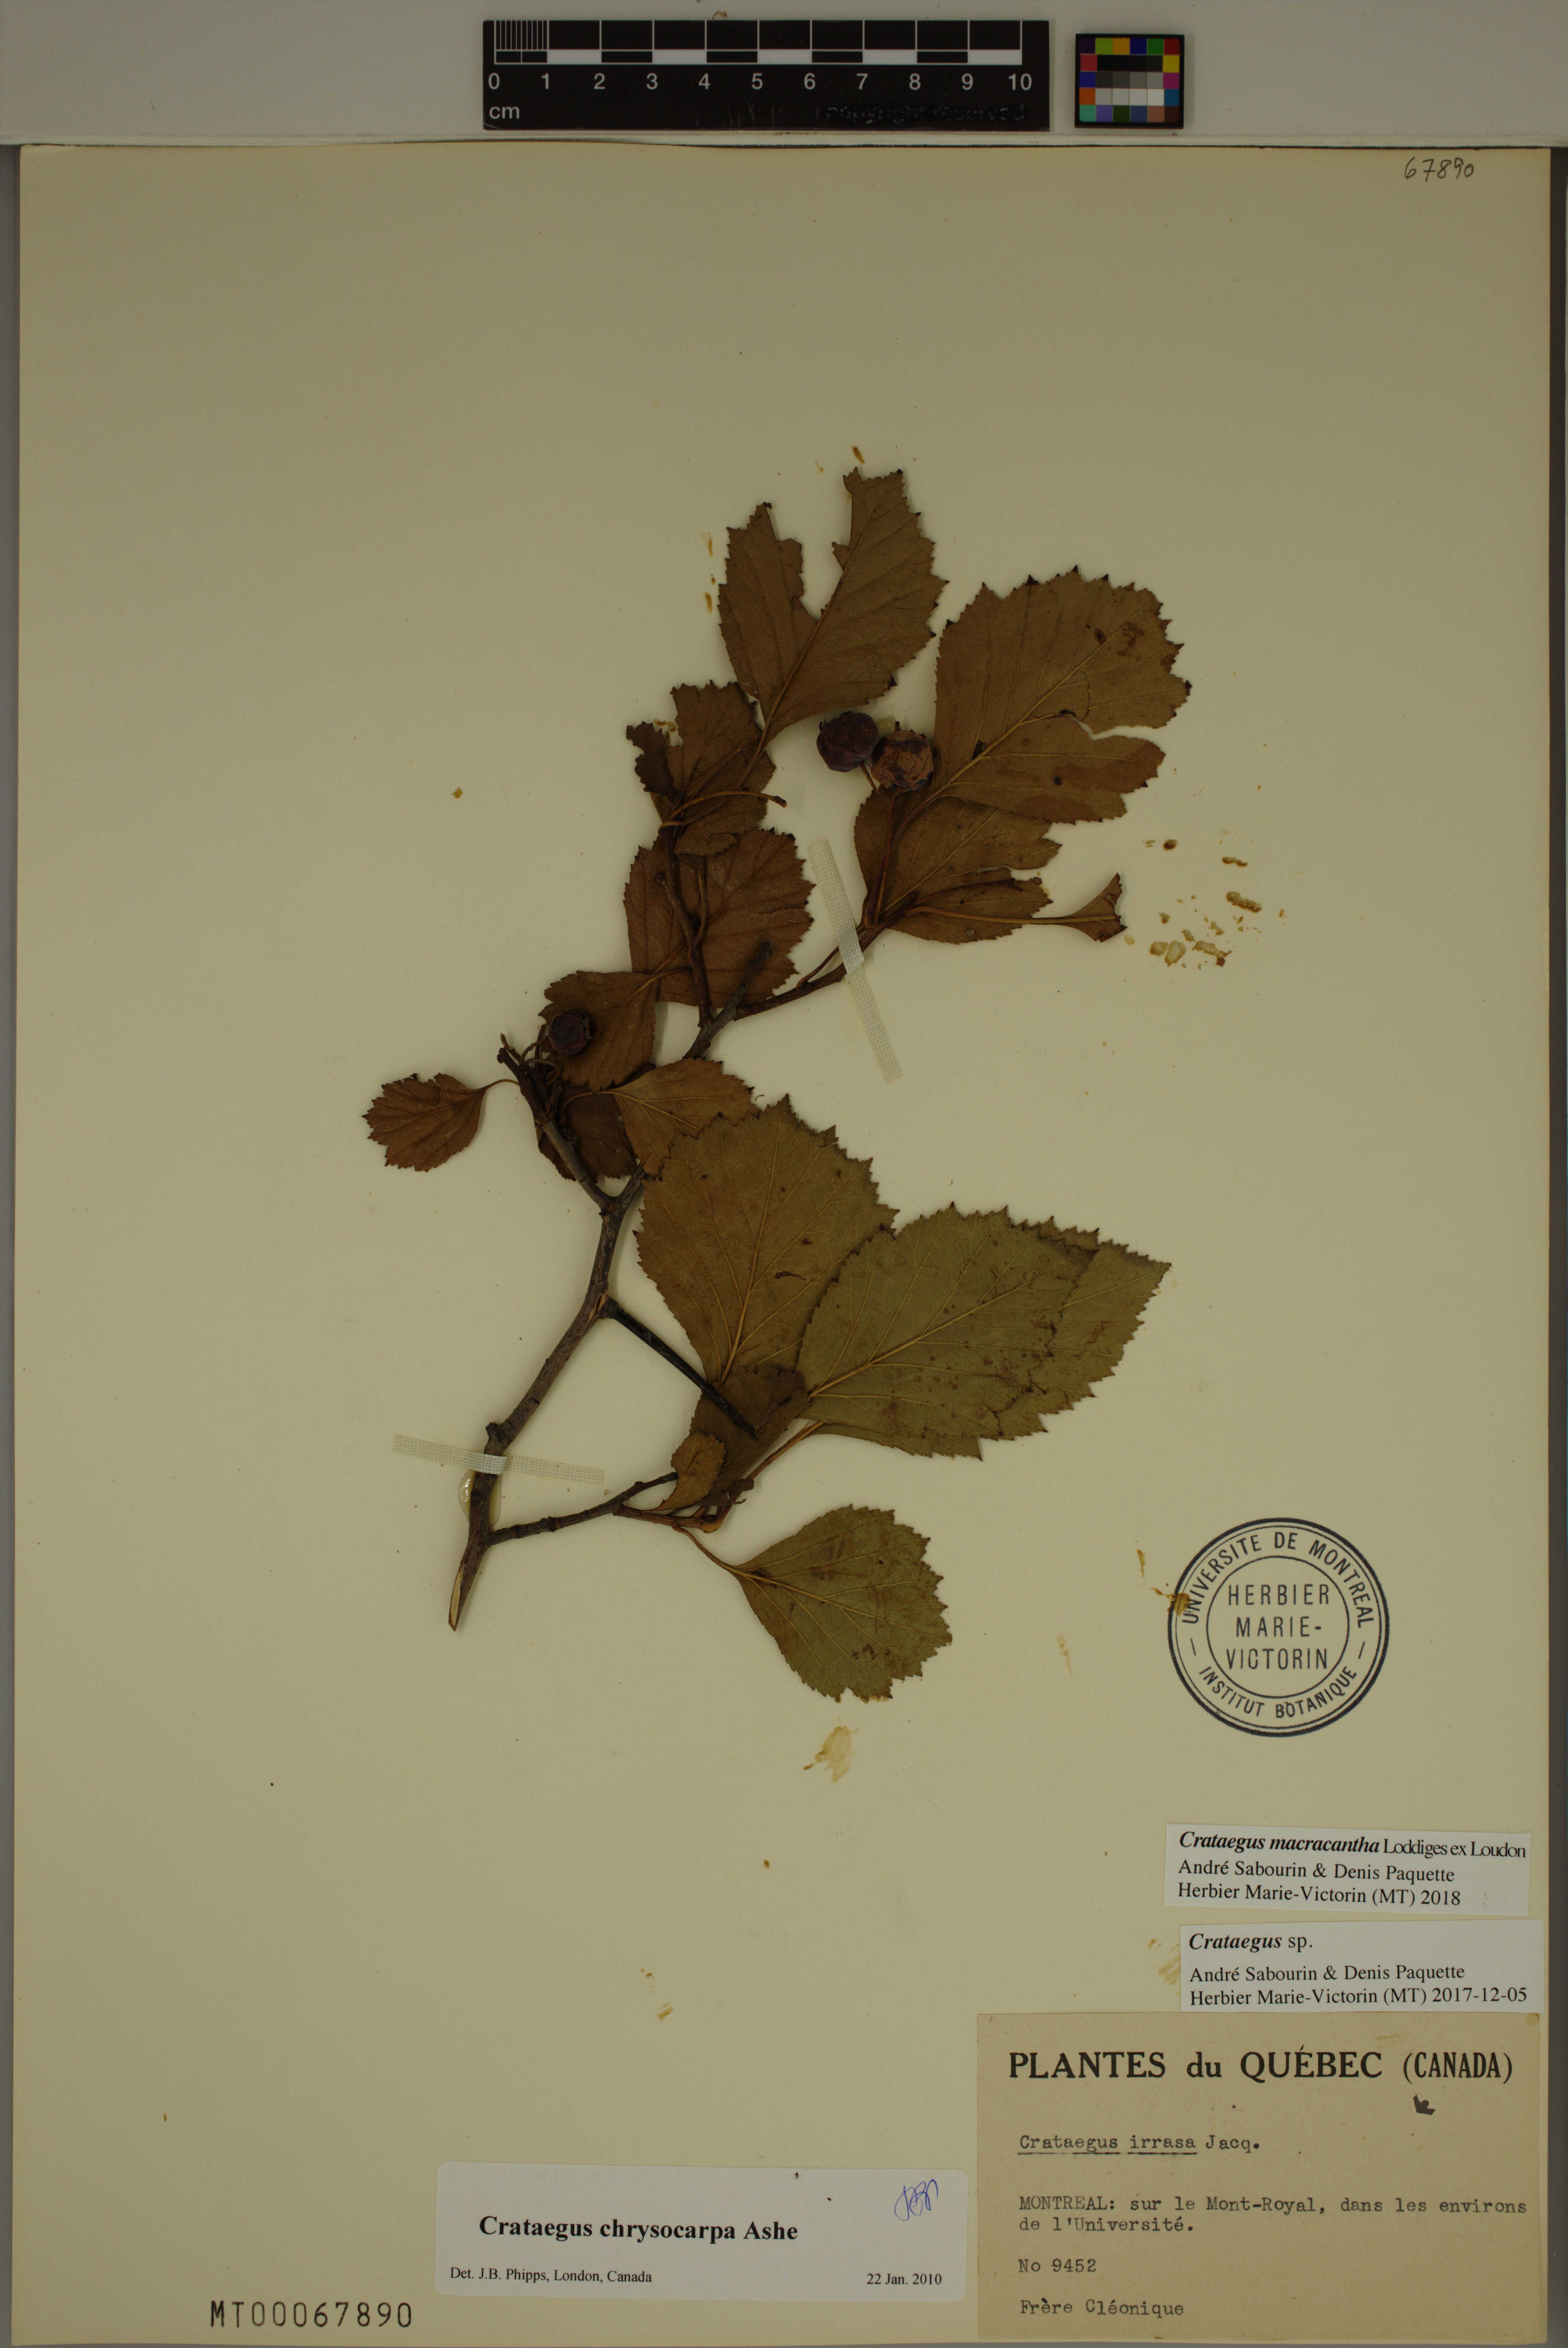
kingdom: Plantae
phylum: Tracheophyta
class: Magnoliopsida
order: Rosales
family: Rosaceae
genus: Crataegus
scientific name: Crataegus macracantha
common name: Large-thorn hawthorn
